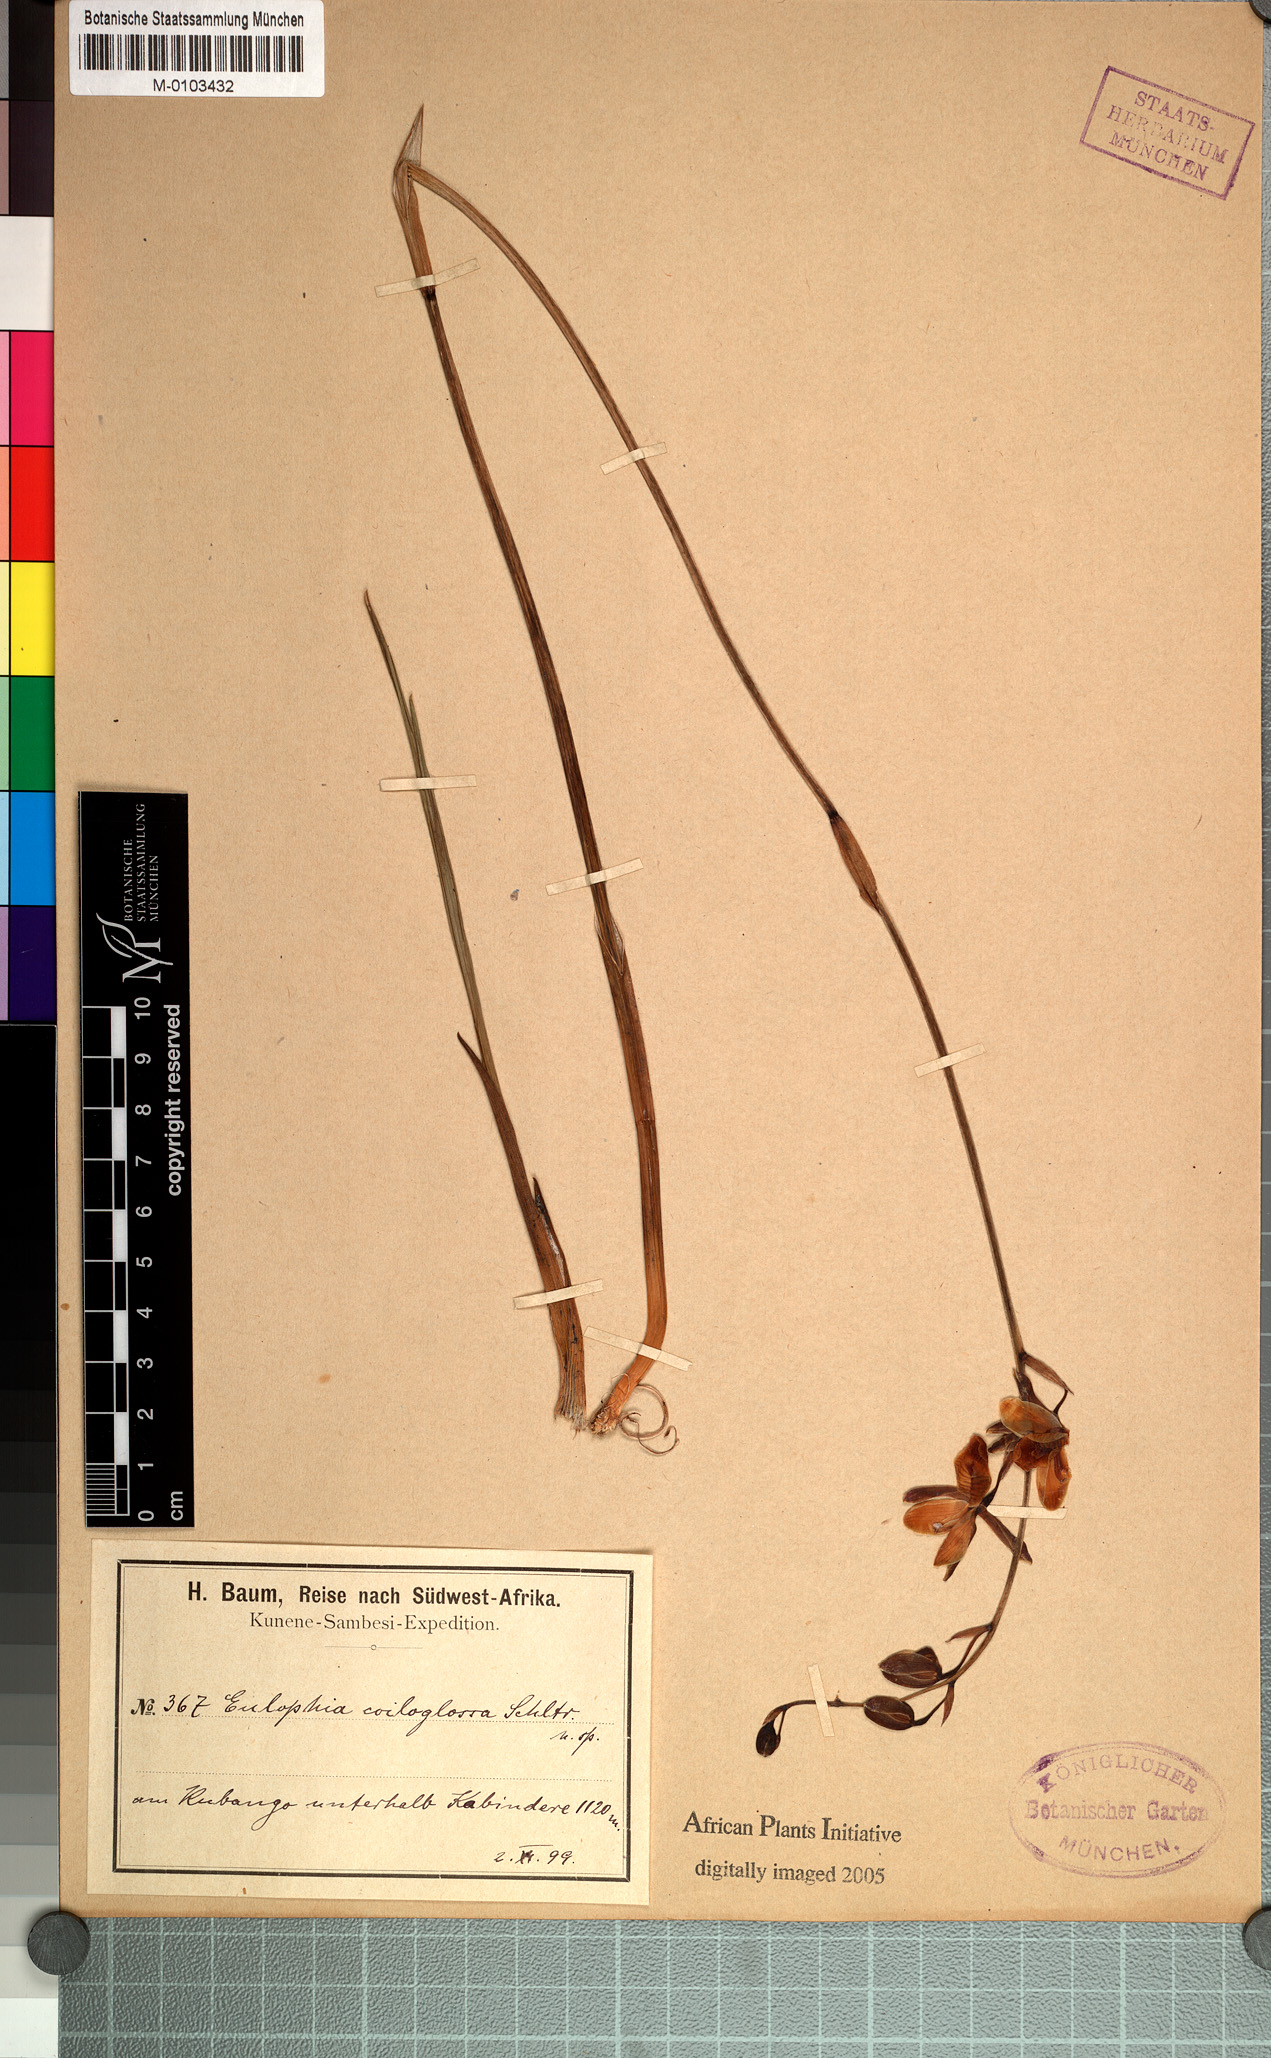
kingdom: Plantae
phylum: Tracheophyta
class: Liliopsida
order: Asparagales
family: Orchidaceae
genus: Eulophia
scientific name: Eulophia coeloglossa
